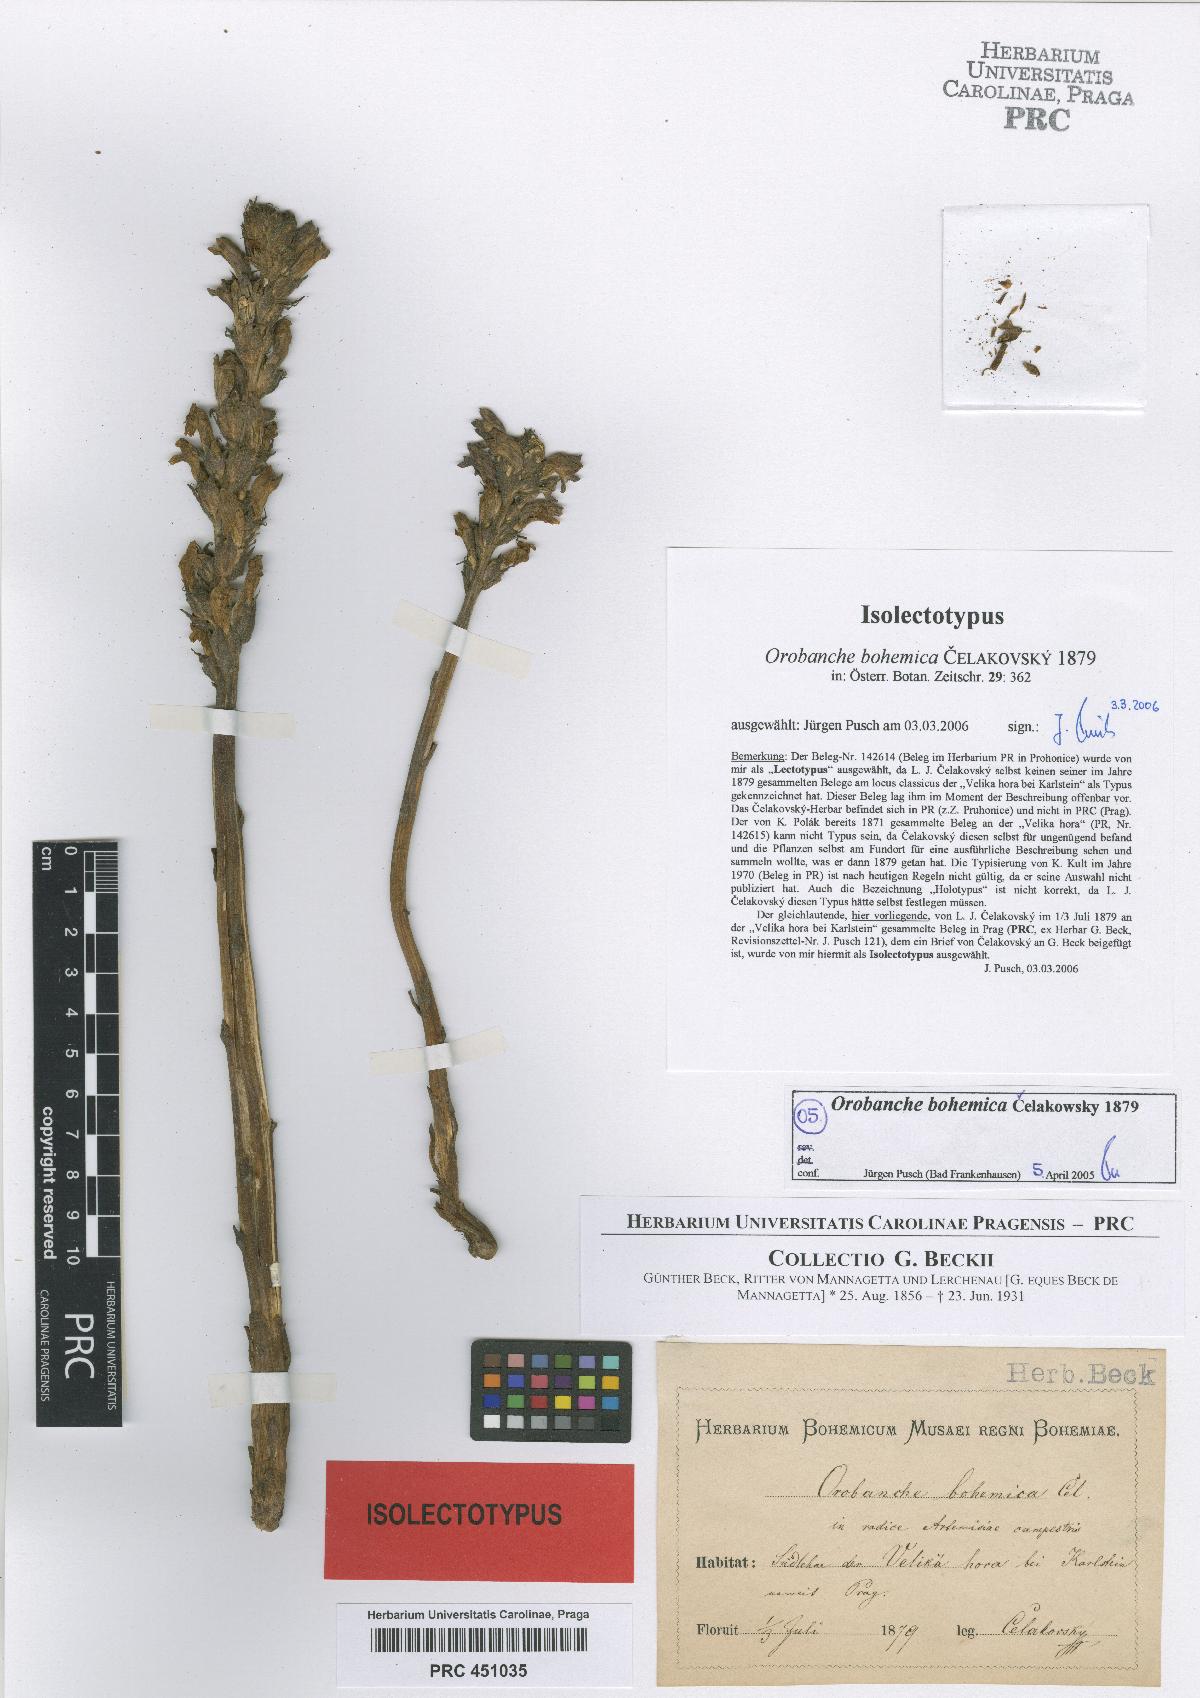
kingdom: Plantae
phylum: Tracheophyta
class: Magnoliopsida
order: Lamiales
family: Orobanchaceae
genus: Phelipanche
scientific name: Phelipanche bohemica
